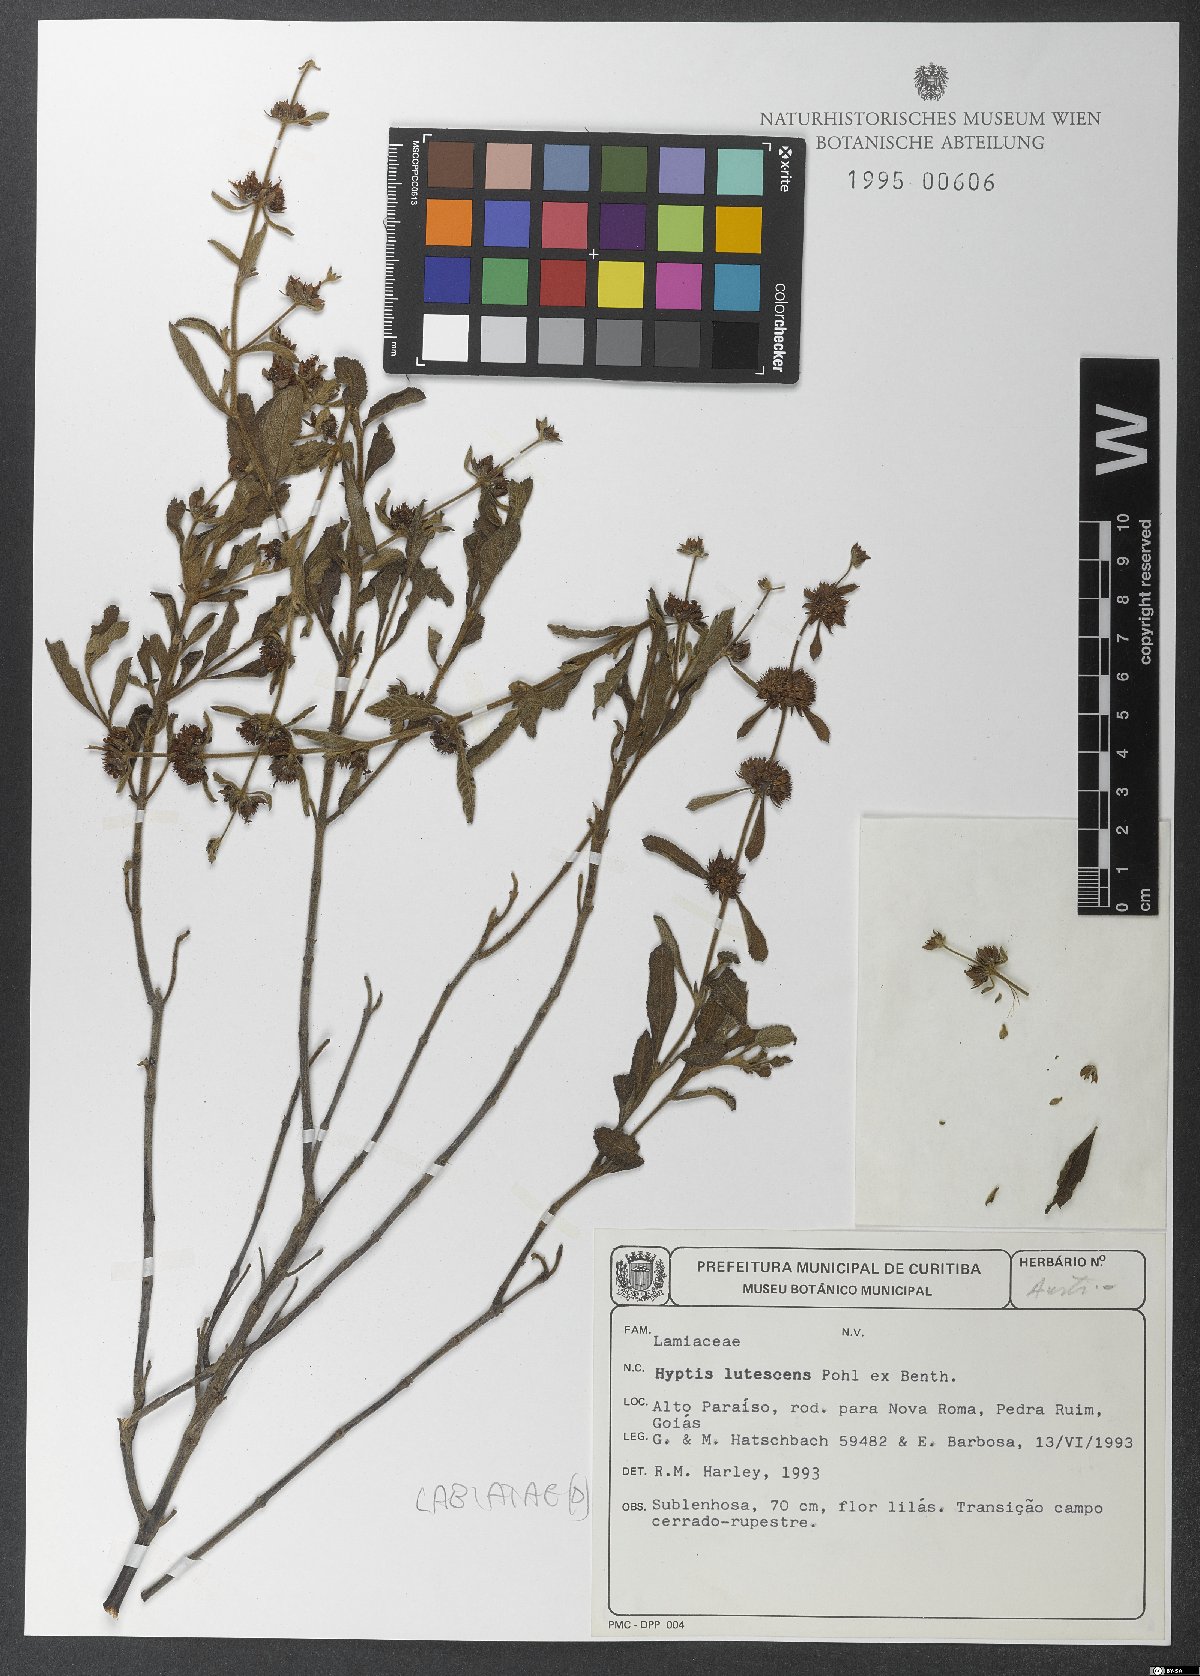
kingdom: Plantae
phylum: Tracheophyta
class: Magnoliopsida
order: Lamiales
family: Lamiaceae
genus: Hyptis
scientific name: Hyptis lutescens
